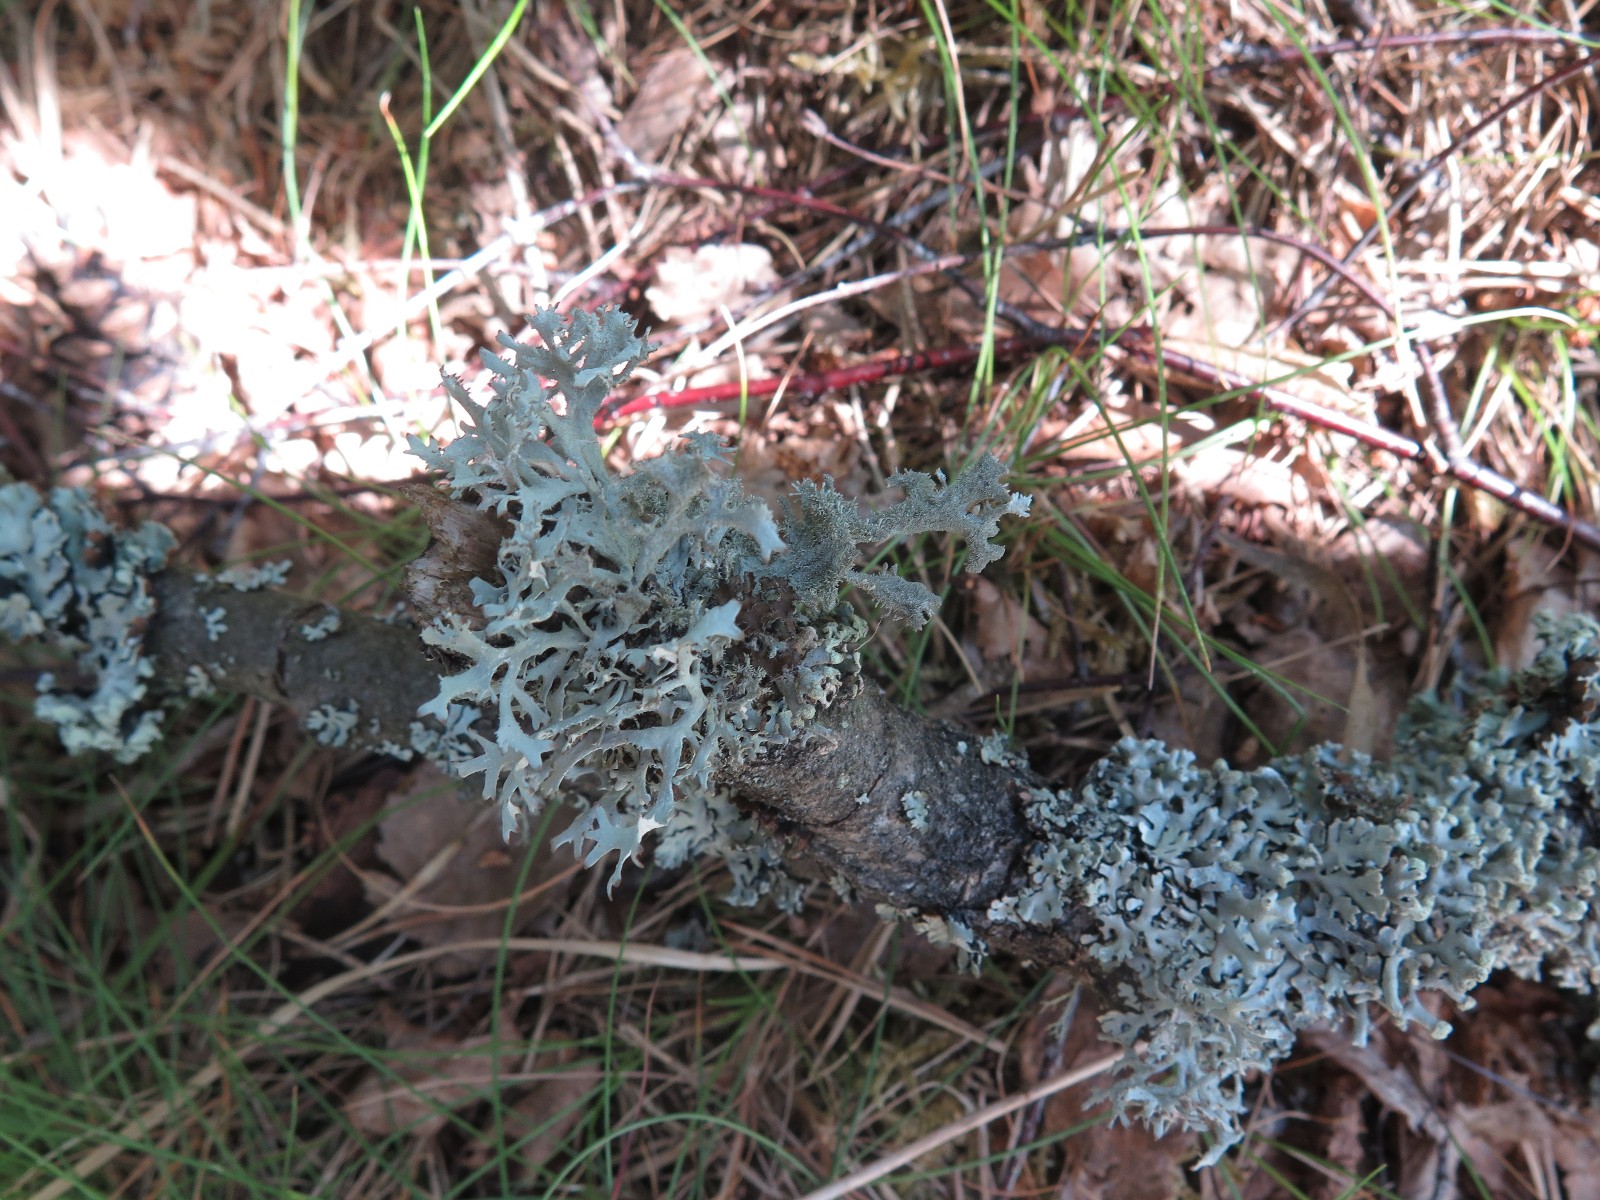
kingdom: Fungi
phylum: Ascomycota
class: Lecanoromycetes
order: Lecanorales
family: Parmeliaceae
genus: Pseudevernia
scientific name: Pseudevernia furfuracea
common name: grå fyrrelav
